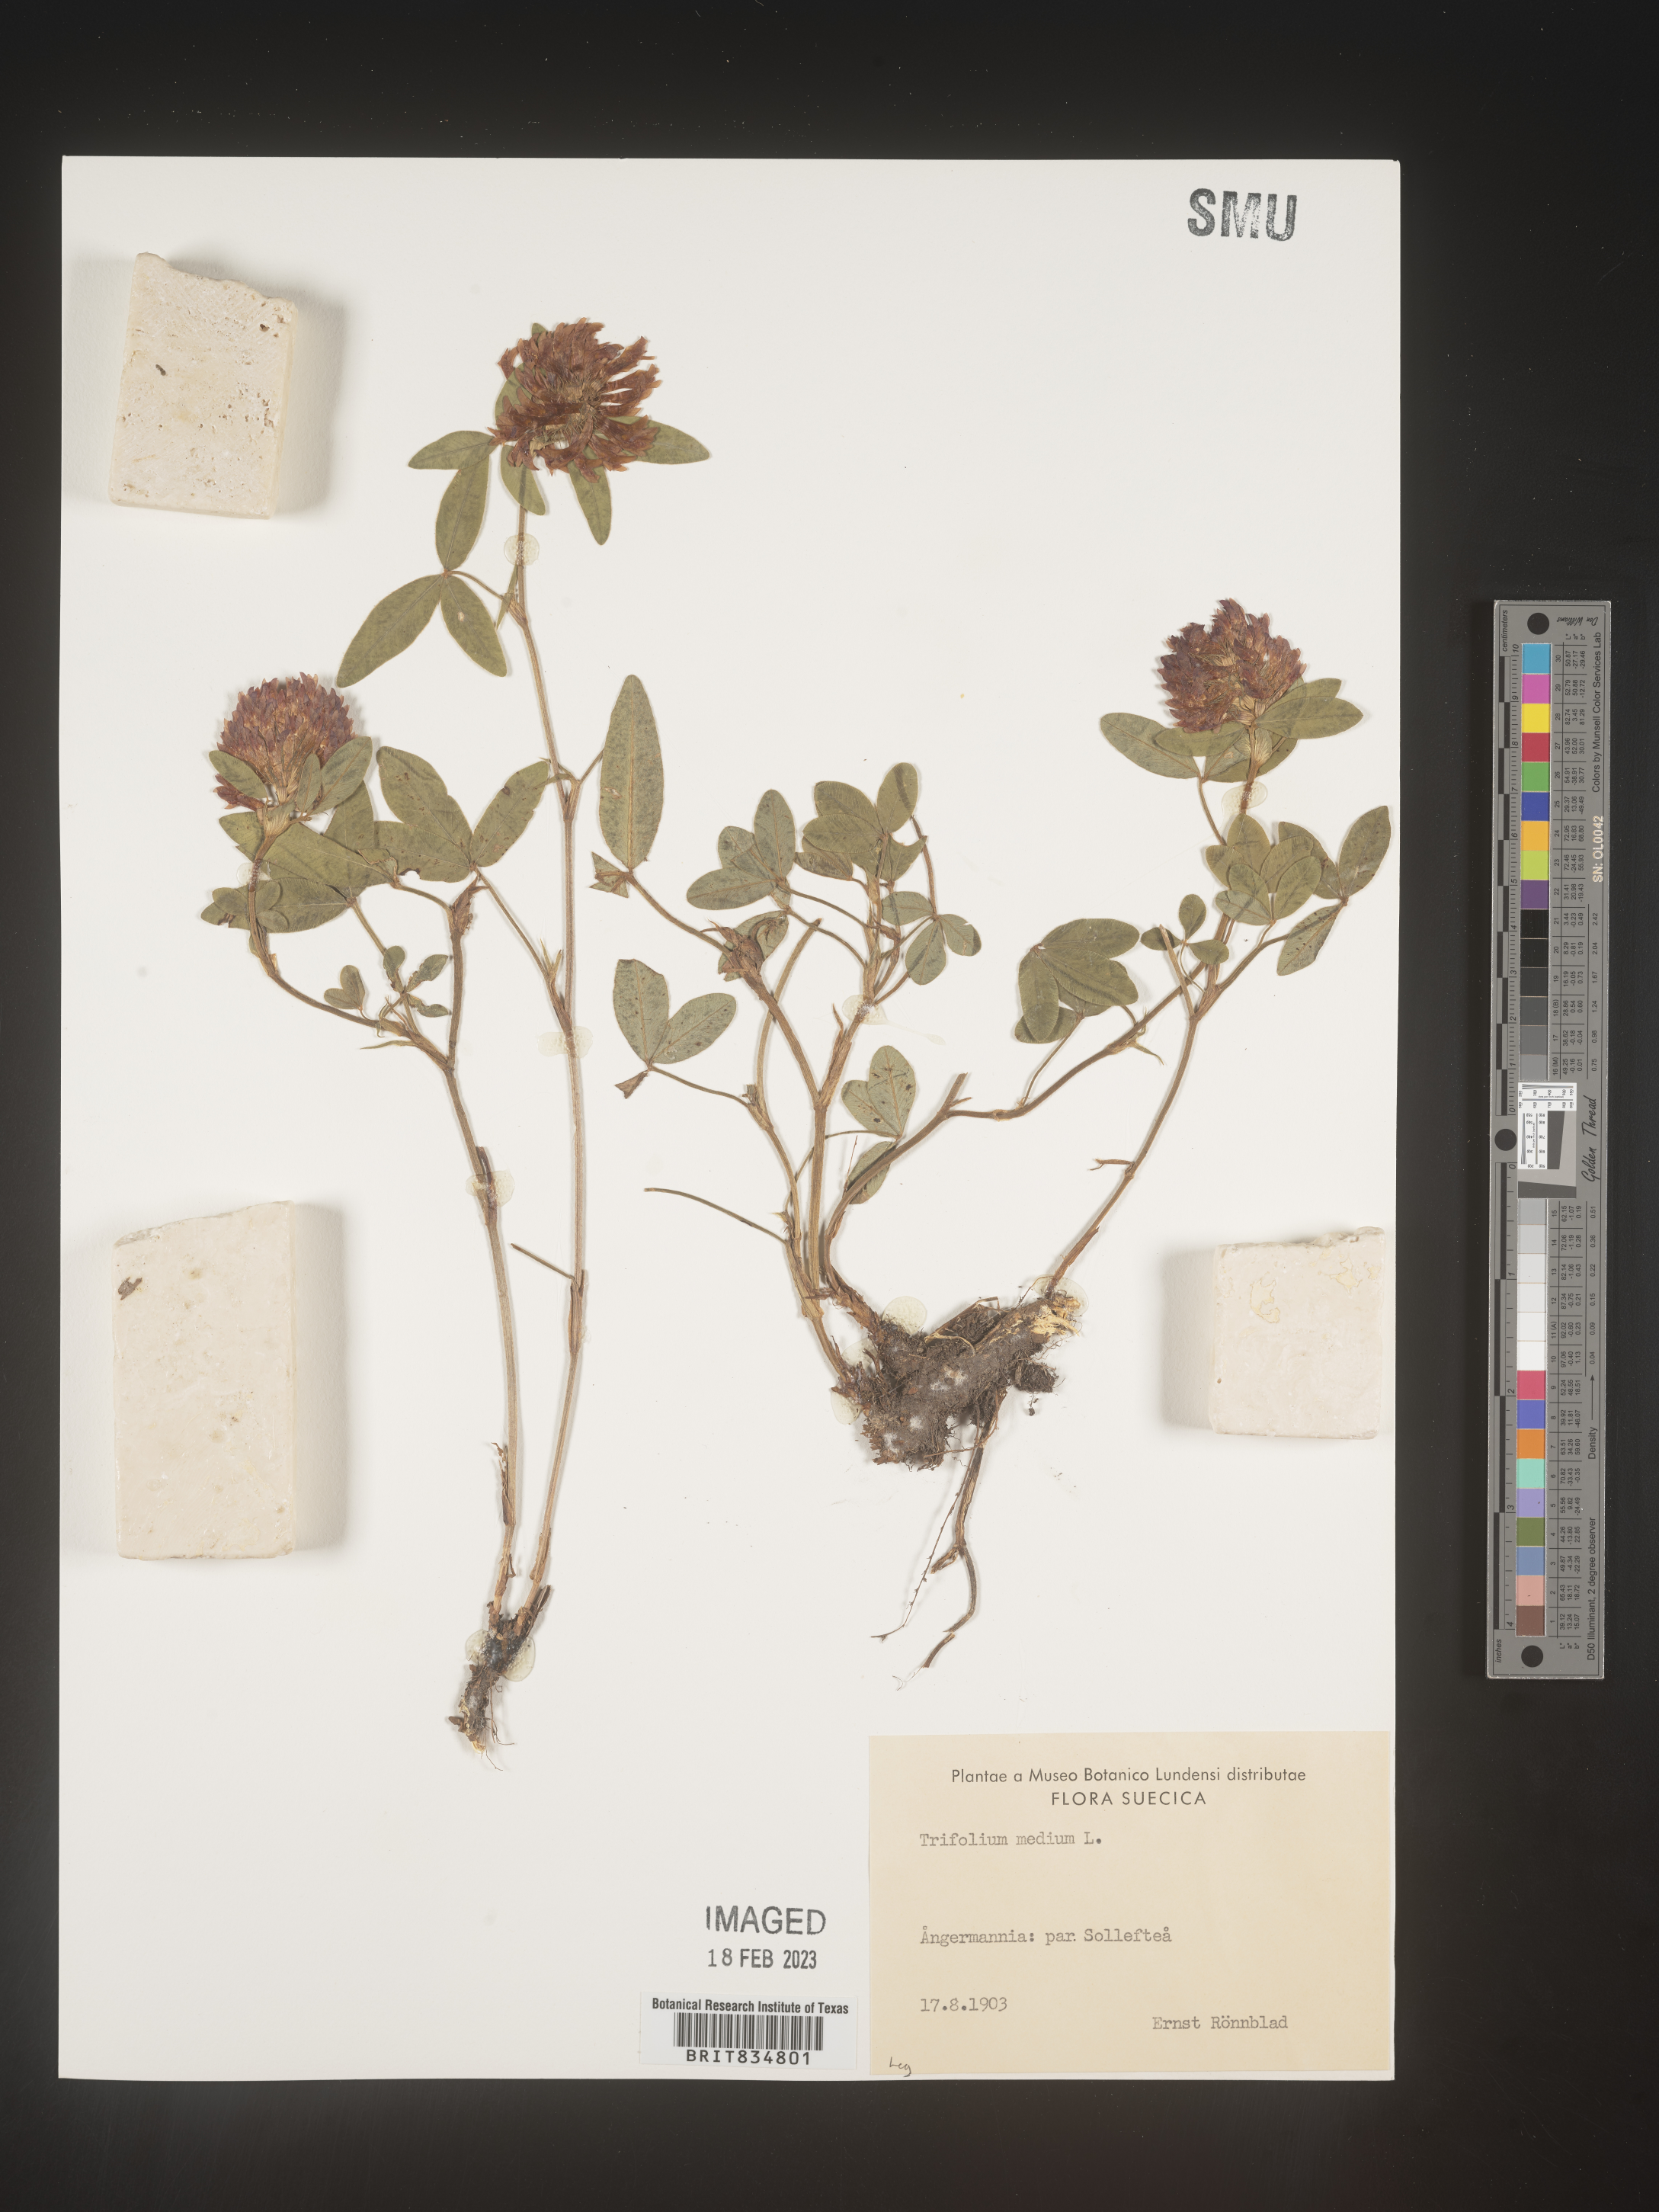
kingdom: Plantae
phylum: Tracheophyta
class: Magnoliopsida
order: Fabales
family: Fabaceae
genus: Trifolium
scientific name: Trifolium
